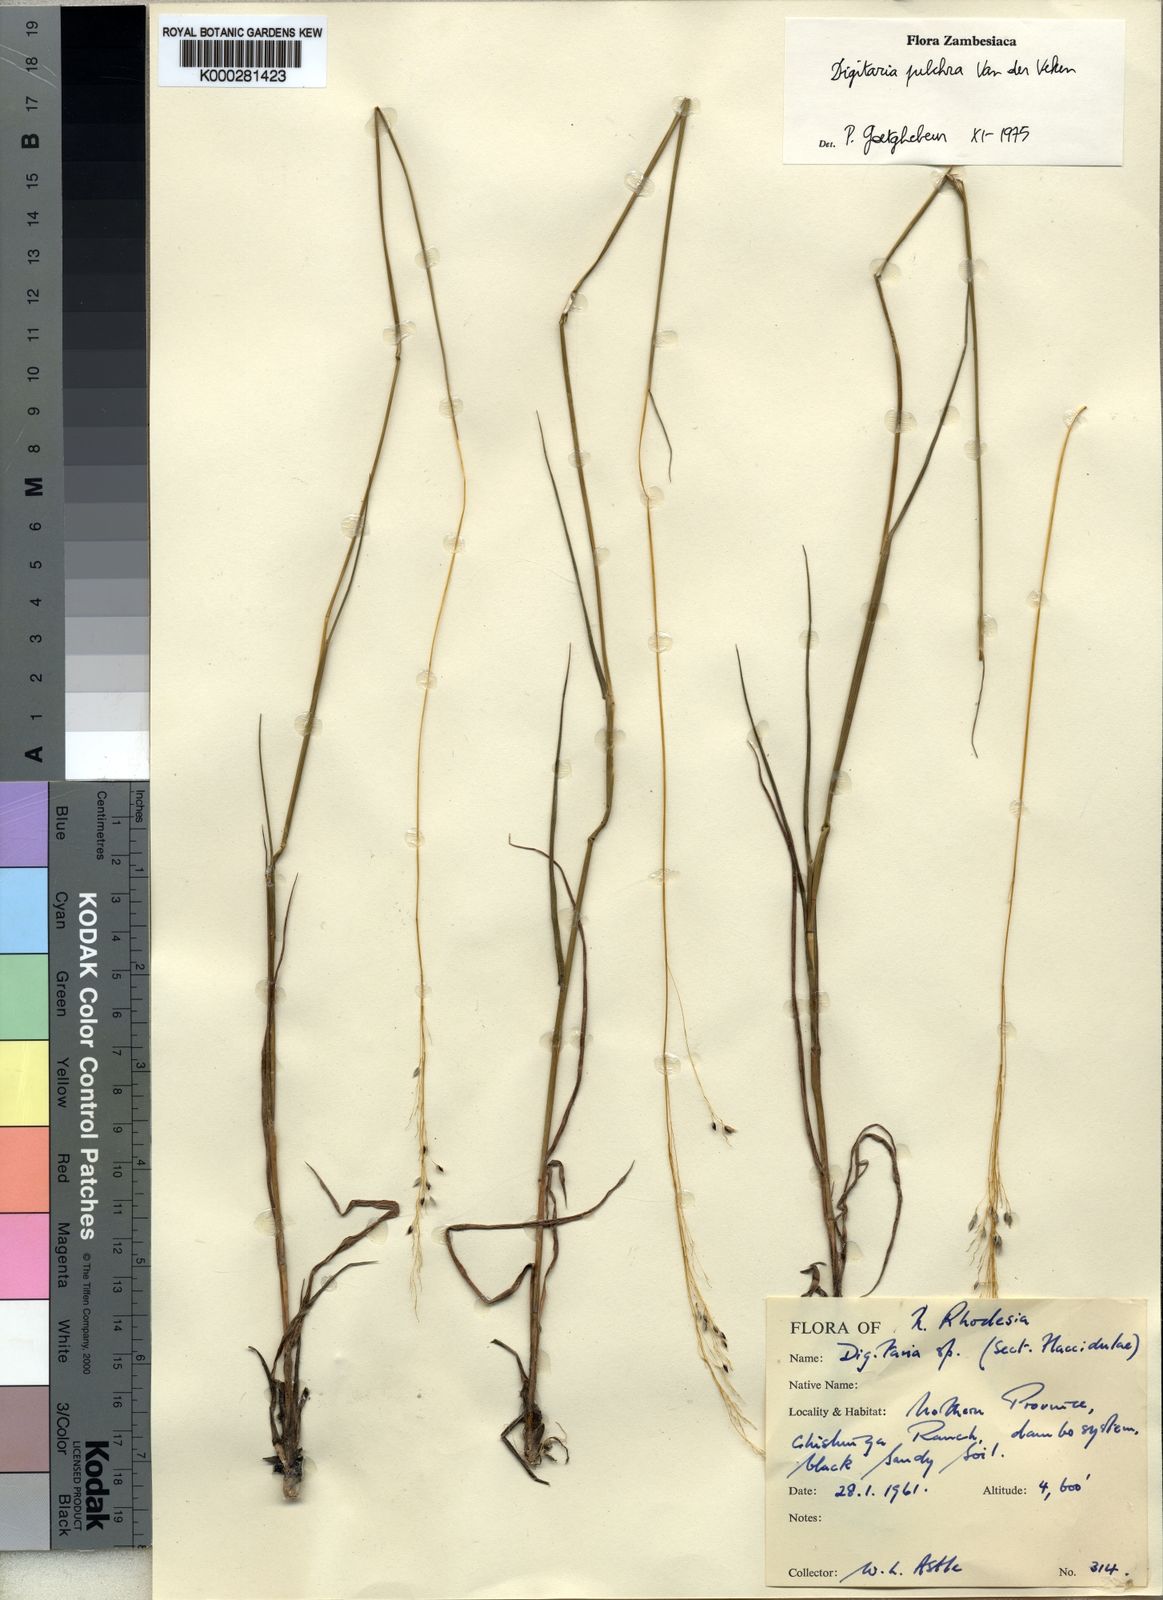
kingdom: Plantae
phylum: Tracheophyta
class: Liliopsida
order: Poales
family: Poaceae
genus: Digitaria
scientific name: Digitaria pulchra
